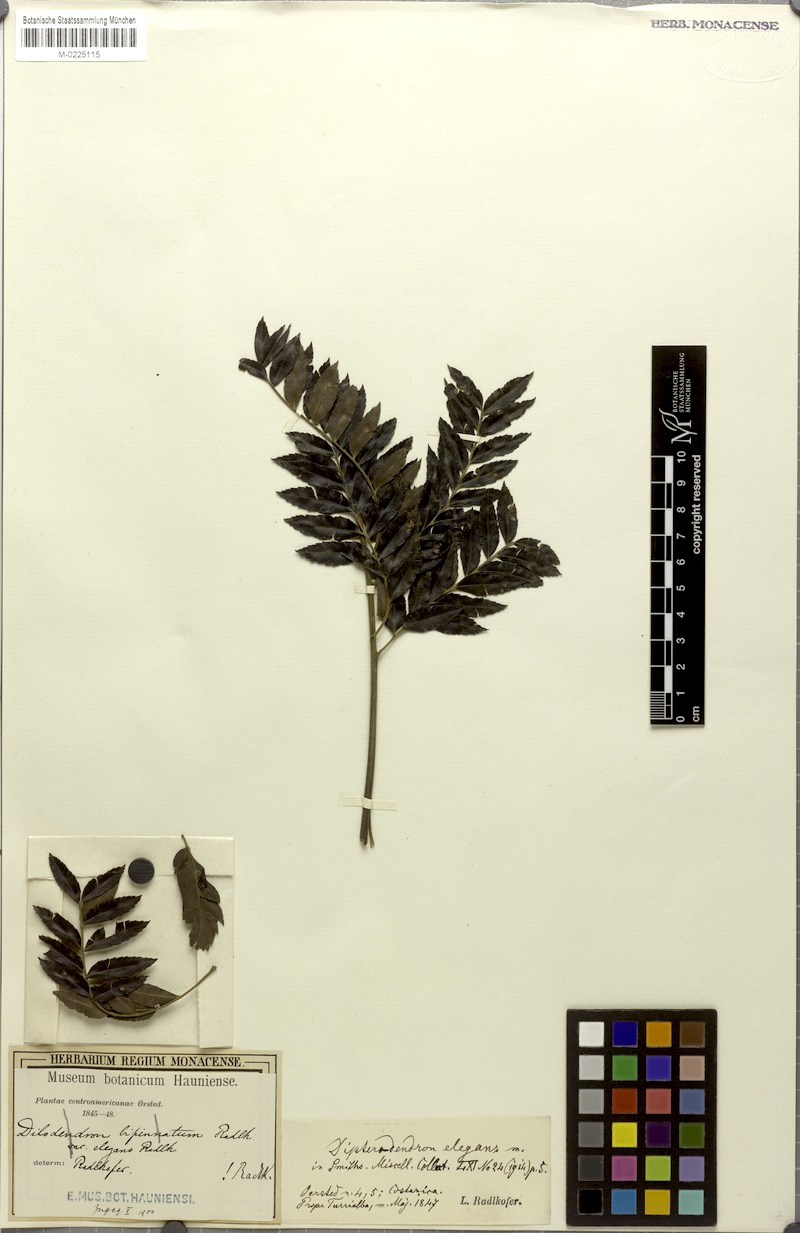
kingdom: Plantae
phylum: Tracheophyta
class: Magnoliopsida
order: Sapindales
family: Sapindaceae
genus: Dilodendron
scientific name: Dilodendron elegans
